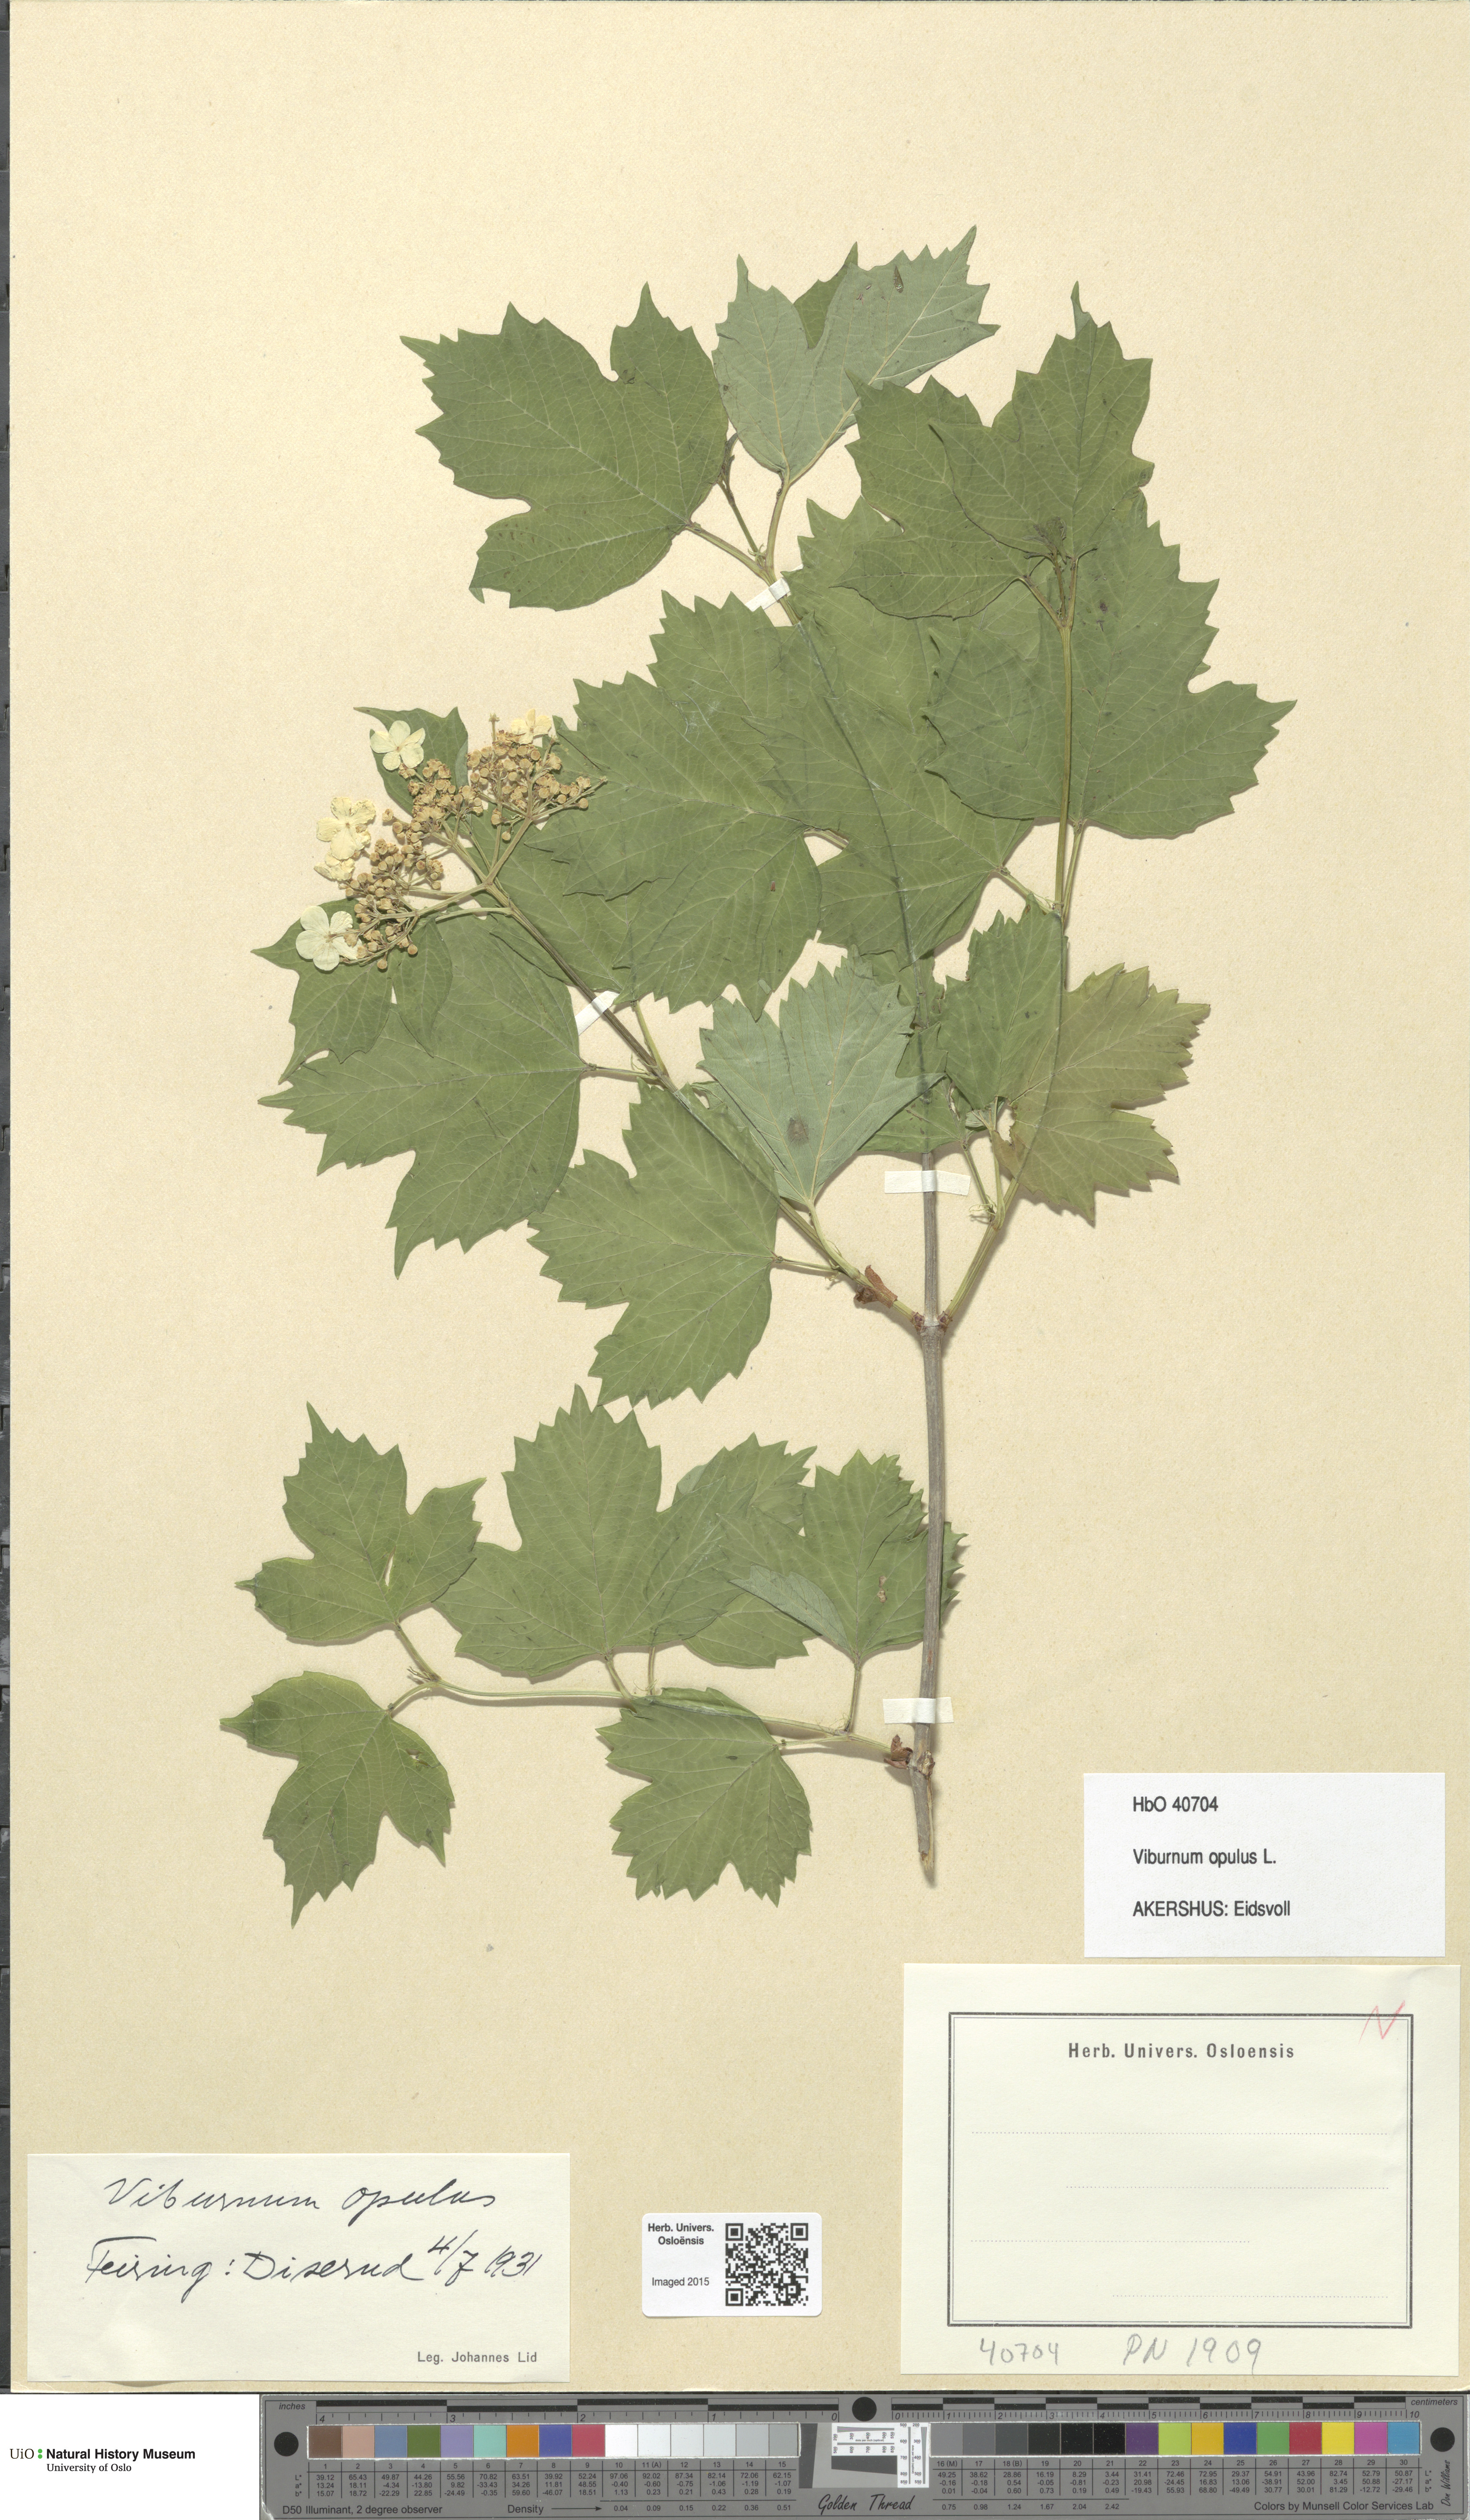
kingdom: Plantae
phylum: Tracheophyta
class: Magnoliopsida
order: Dipsacales
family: Viburnaceae
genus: Viburnum
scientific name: Viburnum opulus
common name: Guelder-rose
